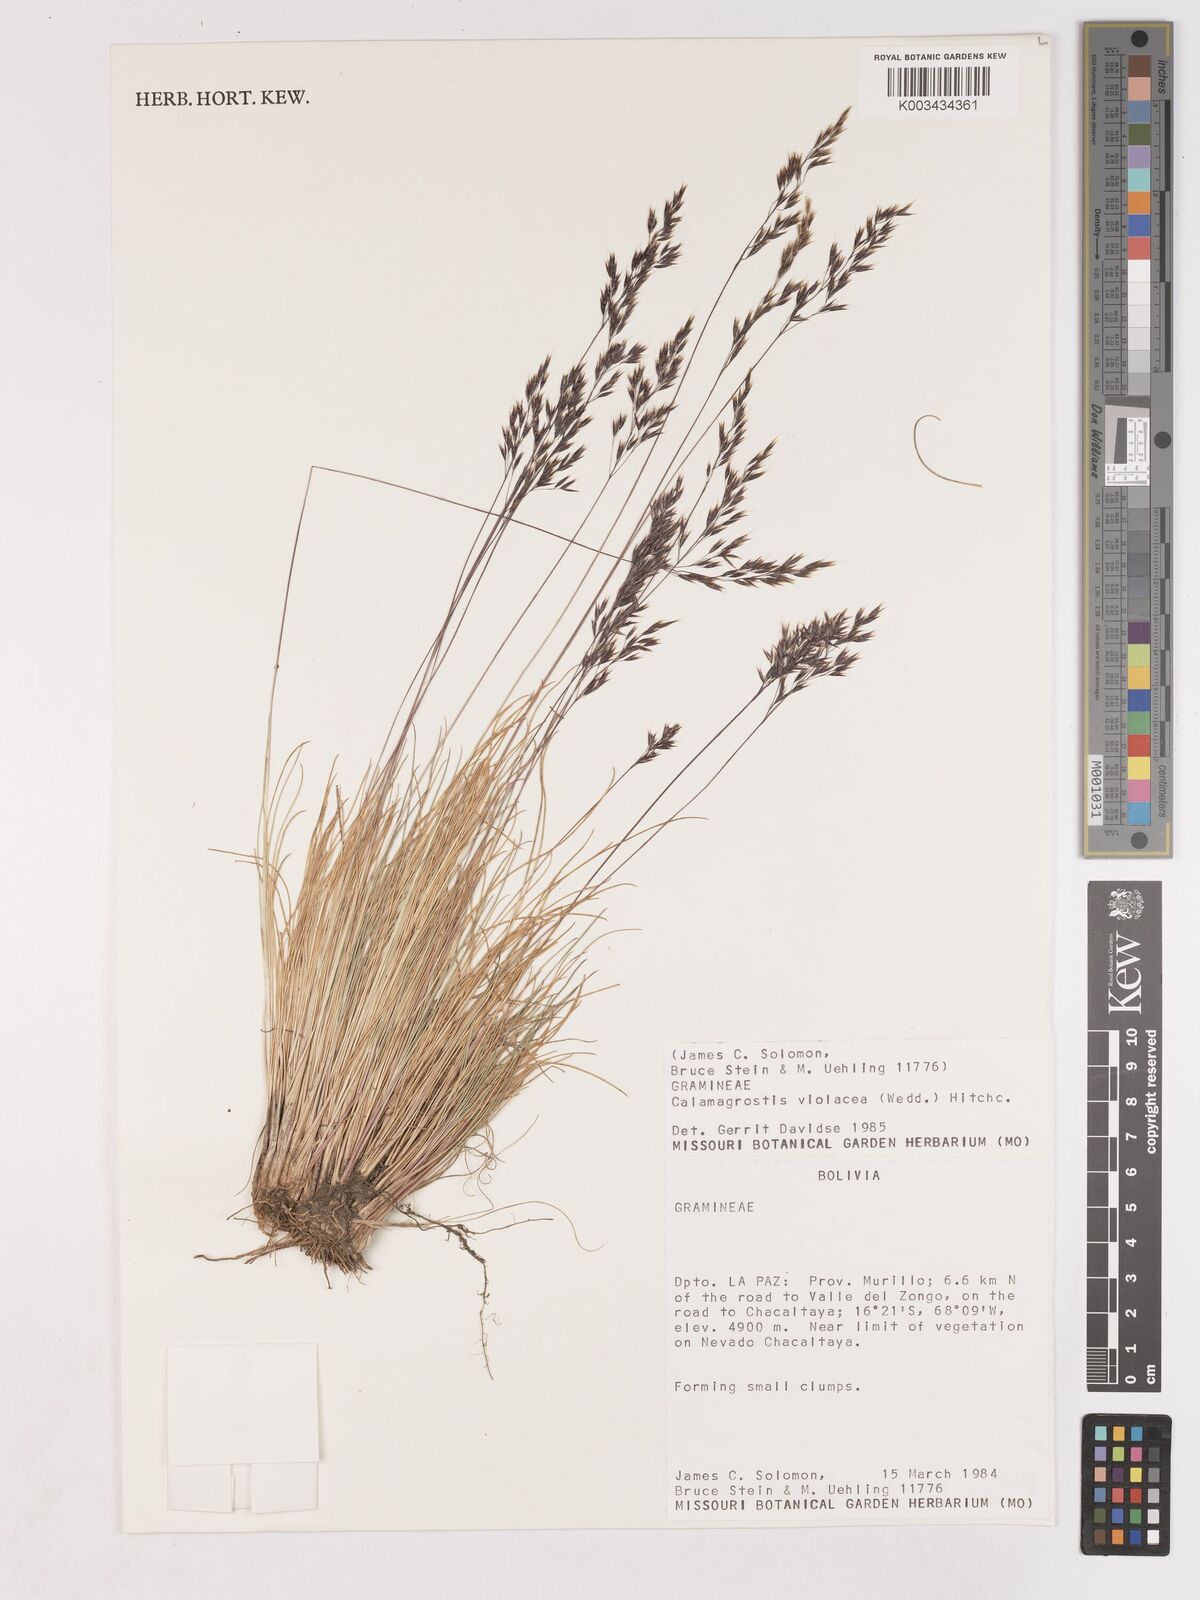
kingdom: Plantae
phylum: Tracheophyta
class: Liliopsida
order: Poales
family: Poaceae
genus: Cinnagrostis
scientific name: Cinnagrostis violacea
